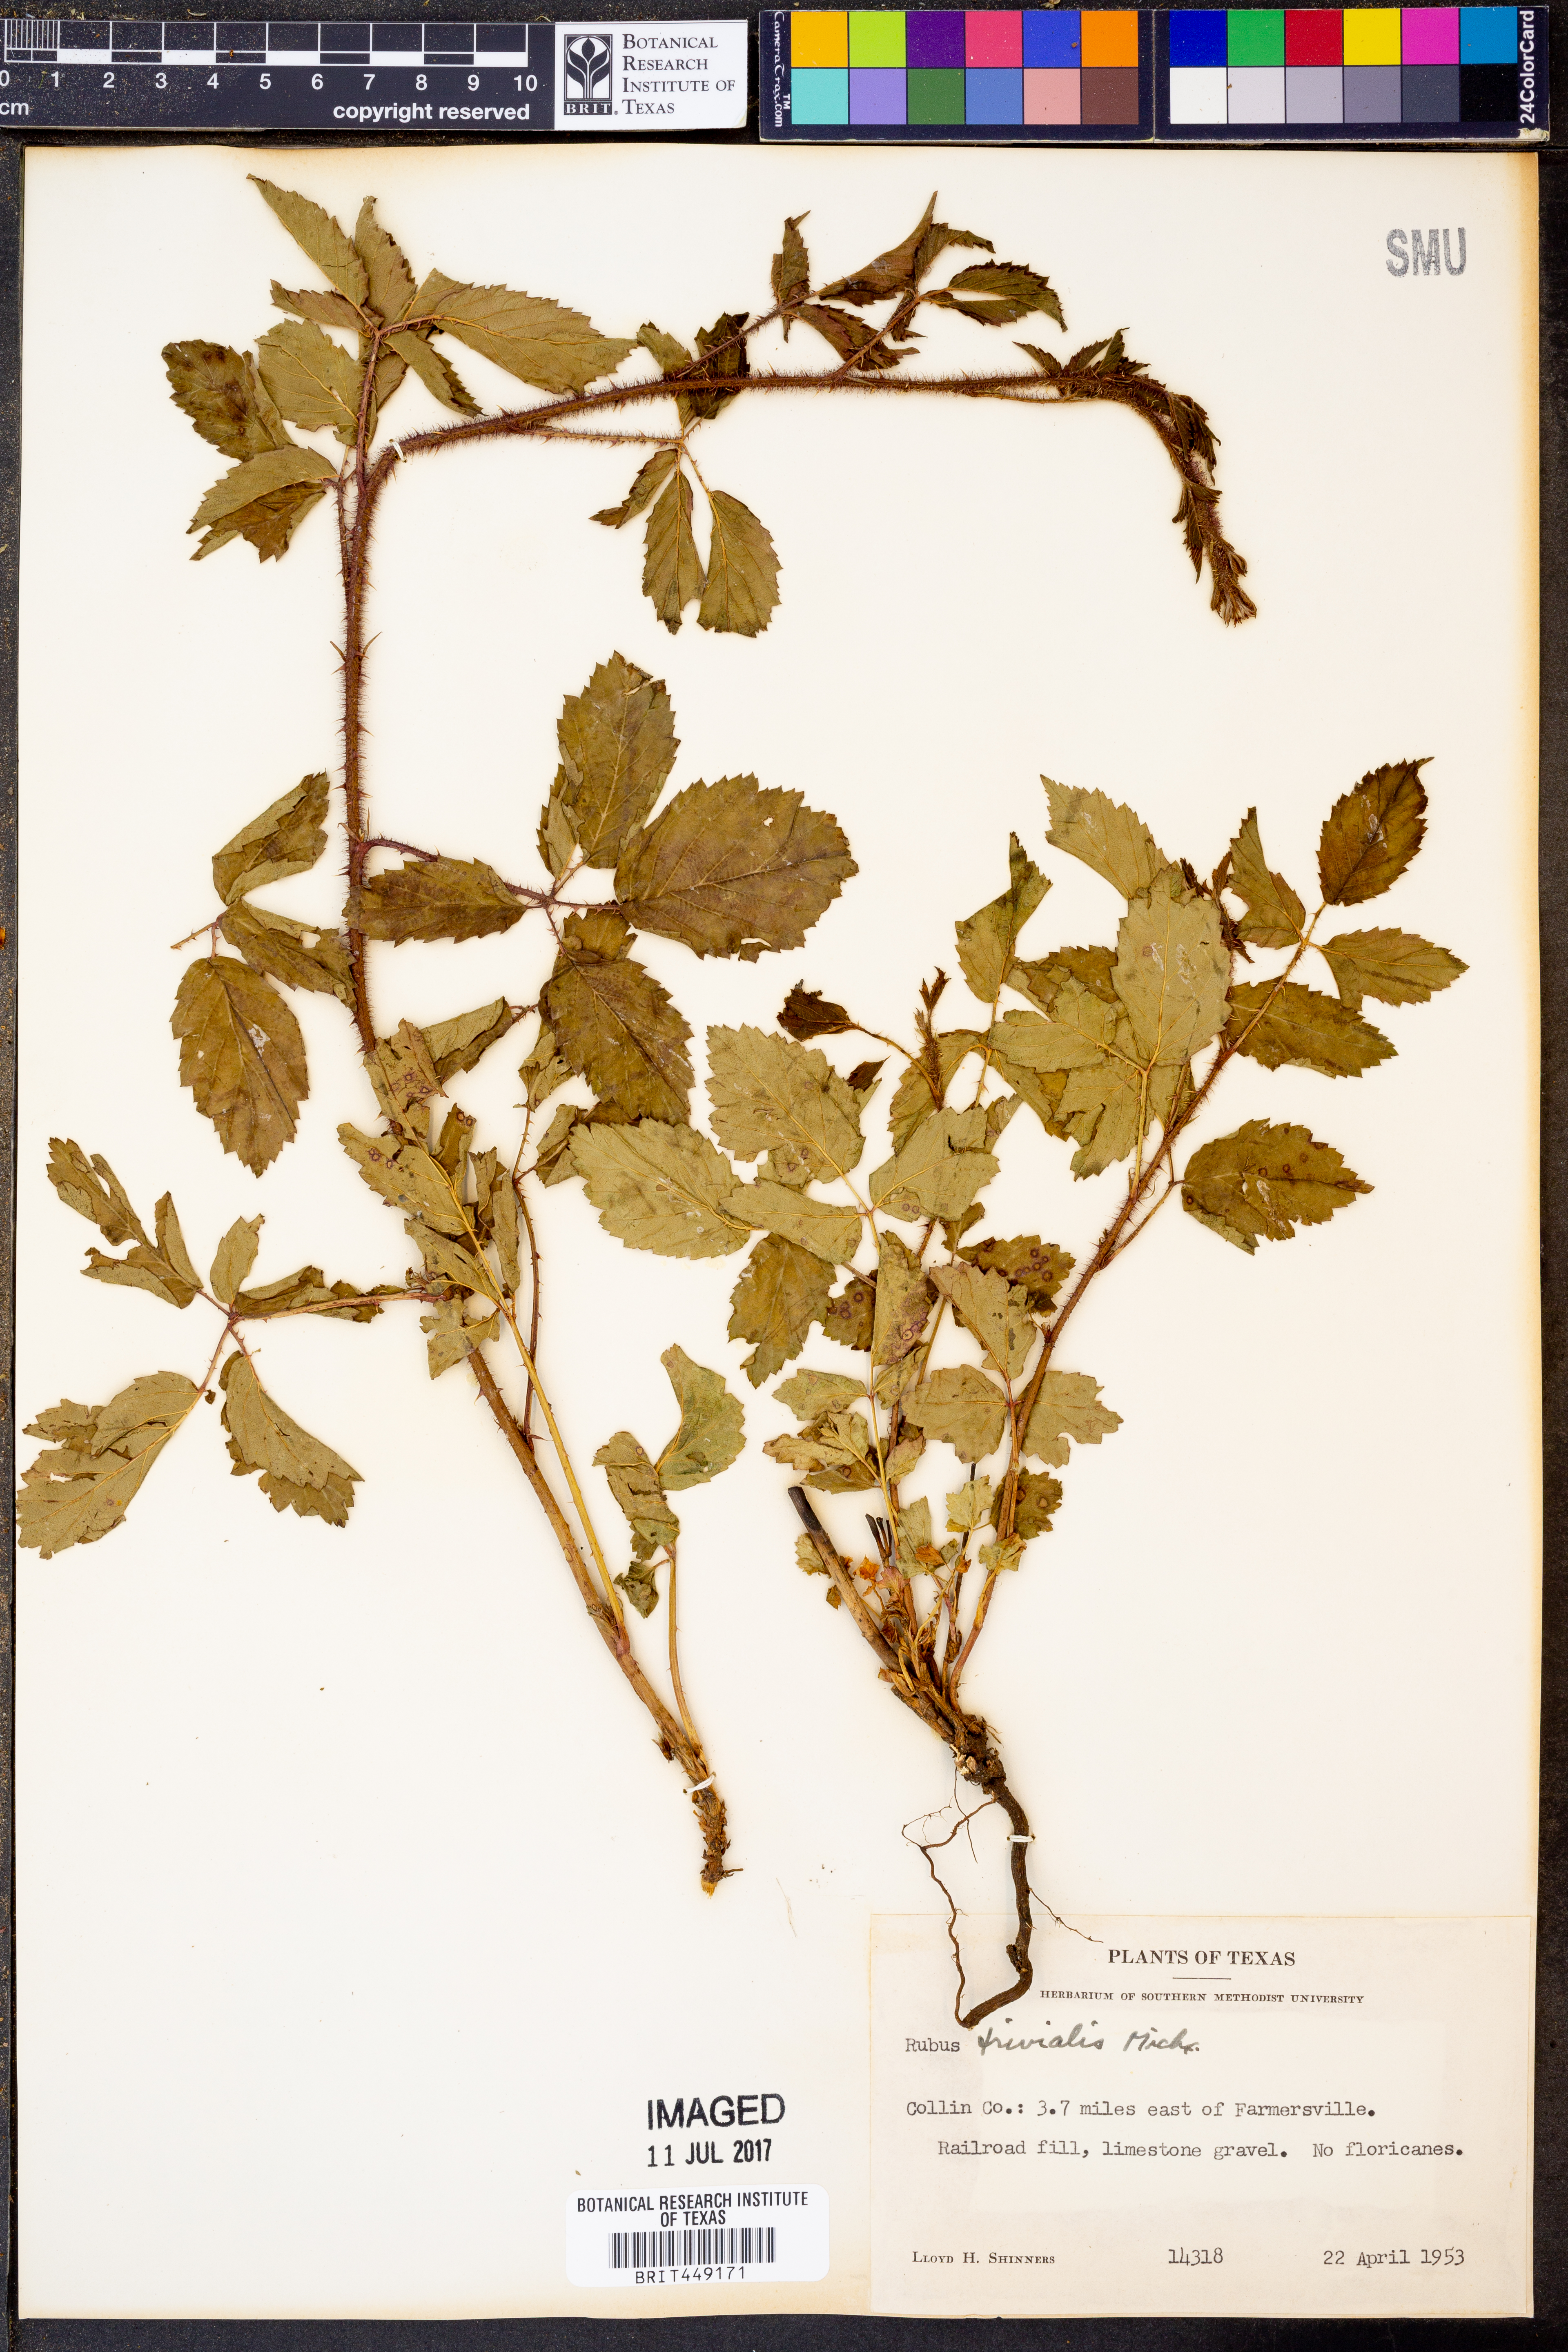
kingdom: Plantae
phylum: Tracheophyta
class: Magnoliopsida
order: Rosales
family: Rosaceae
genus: Rubus
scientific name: Rubus trivialis
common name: Southern dewberry
